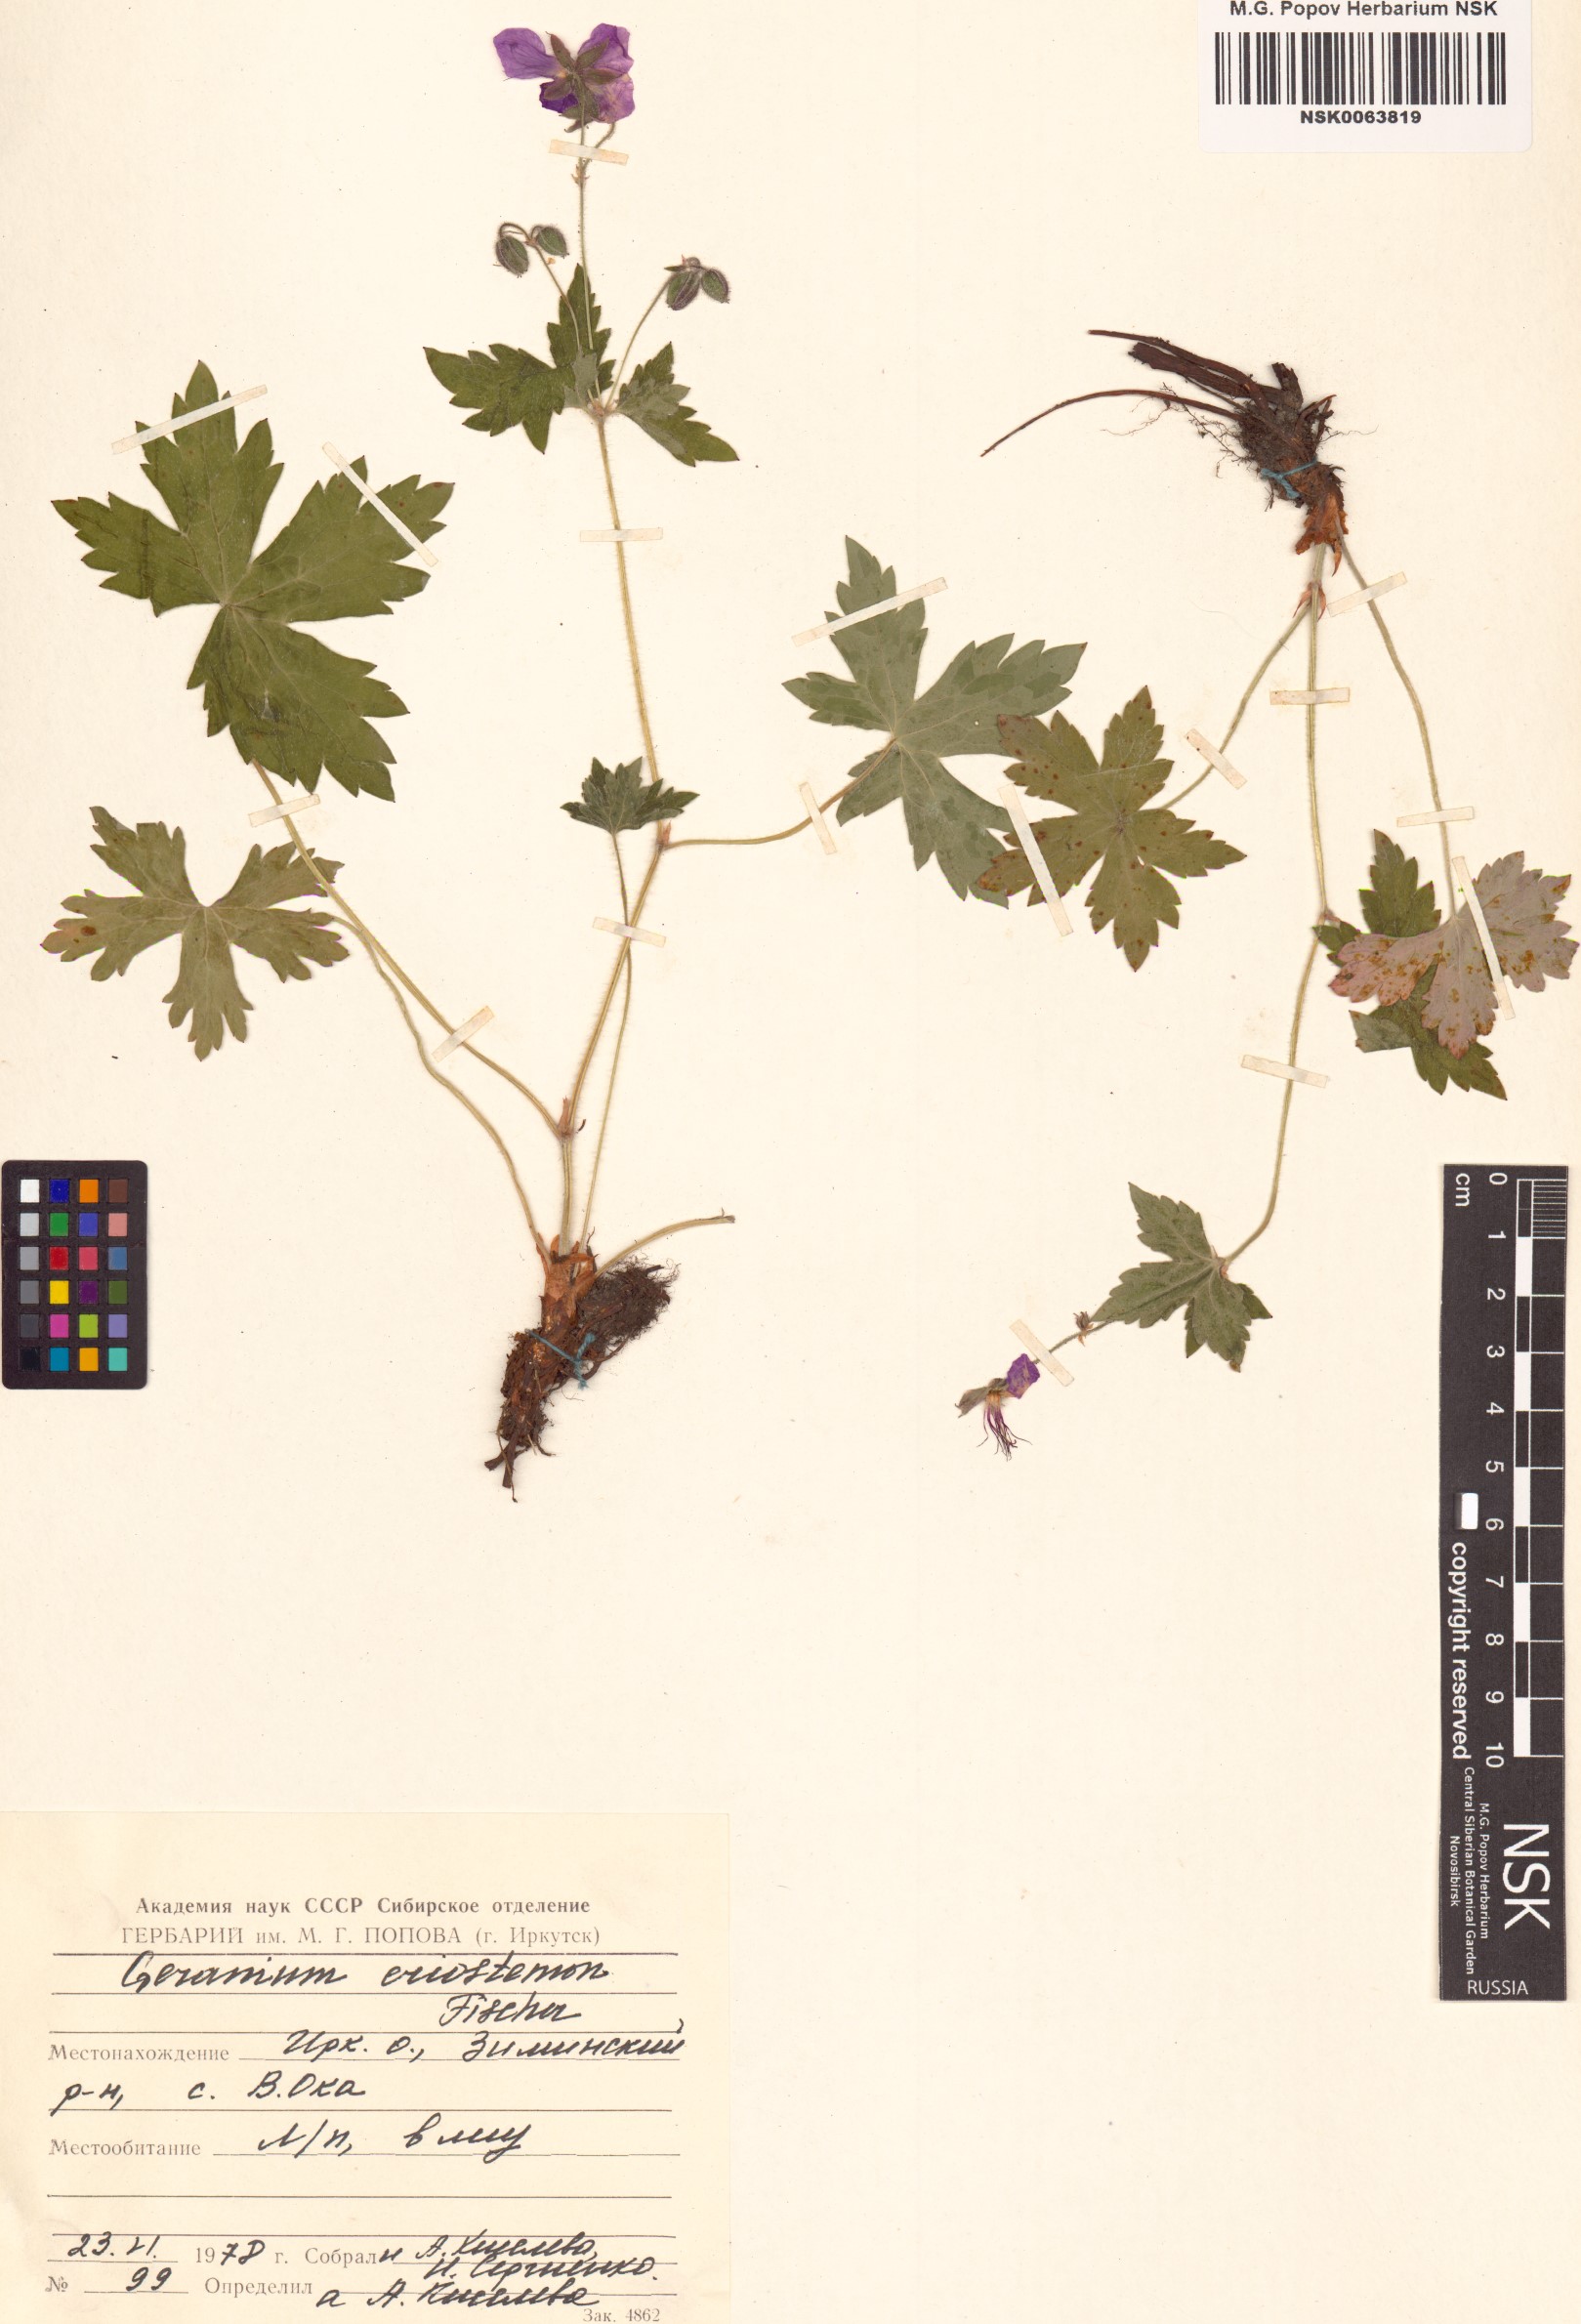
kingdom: Plantae
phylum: Tracheophyta
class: Magnoliopsida
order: Geraniales
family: Geraniaceae
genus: Geranium
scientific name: Geranium platyanthum
